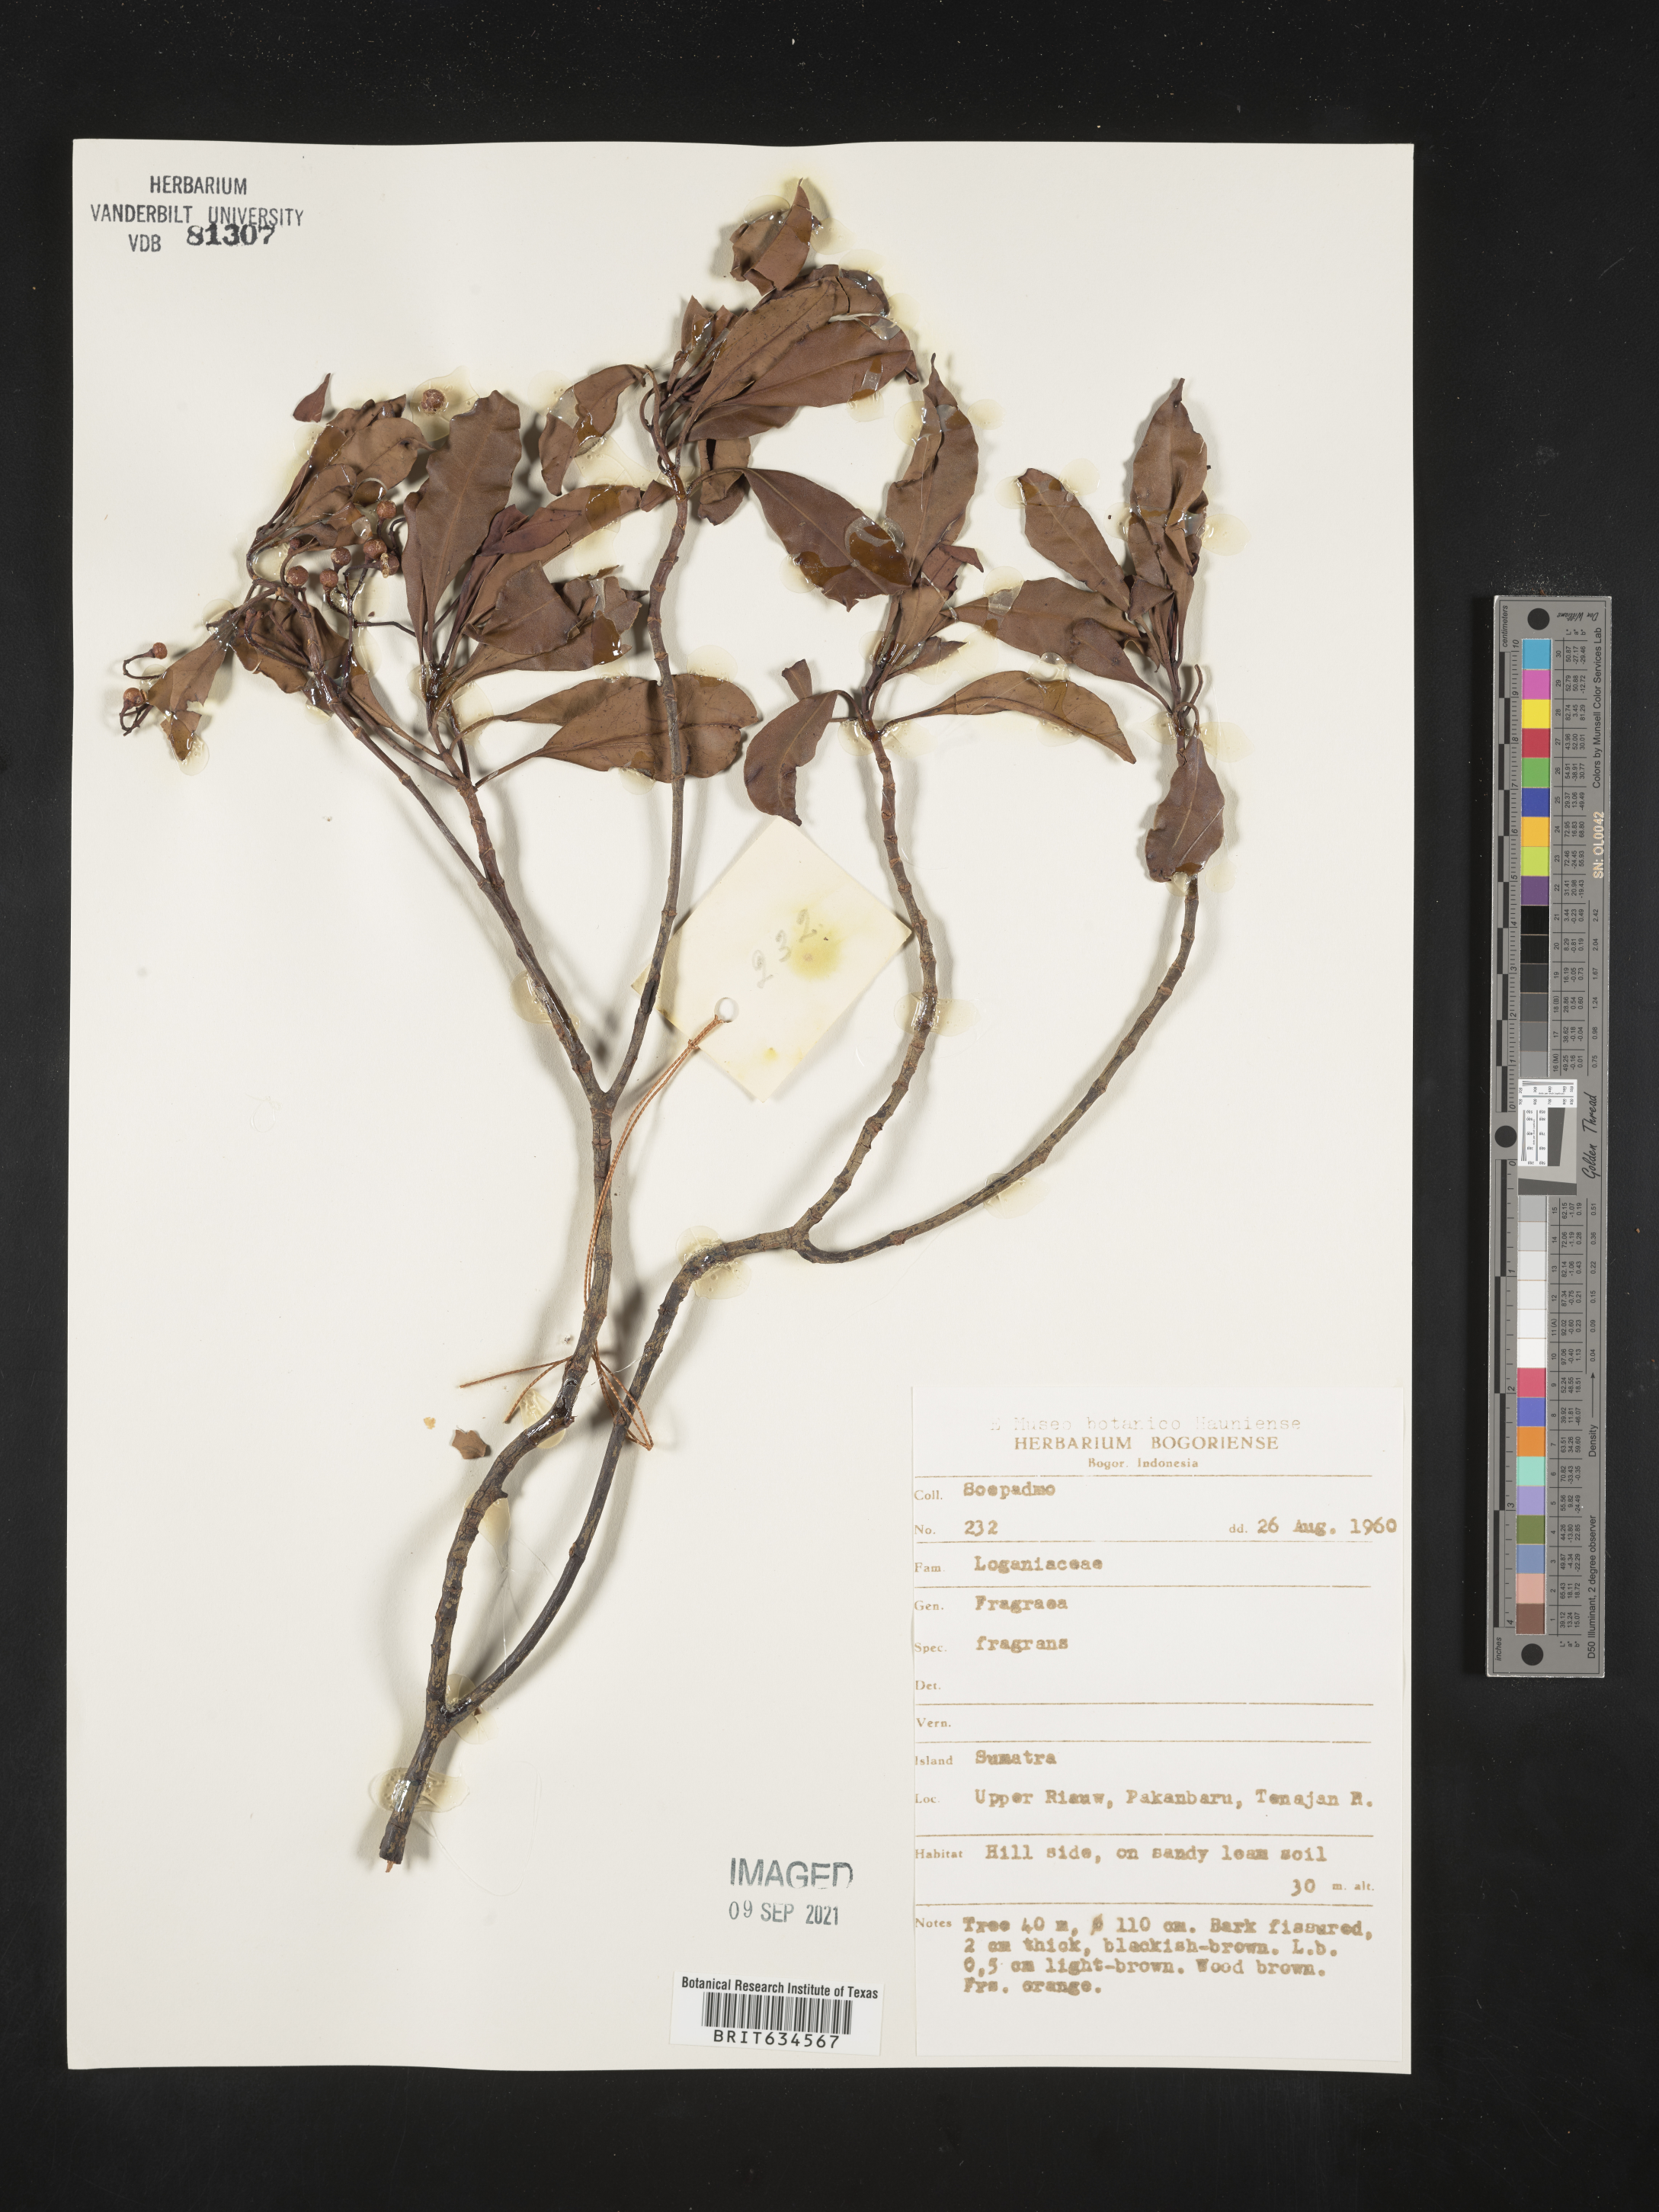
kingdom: Plantae
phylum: Tracheophyta
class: Magnoliopsida
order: Gentianales
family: Gentianaceae
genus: Fagraea
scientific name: Fagraea
